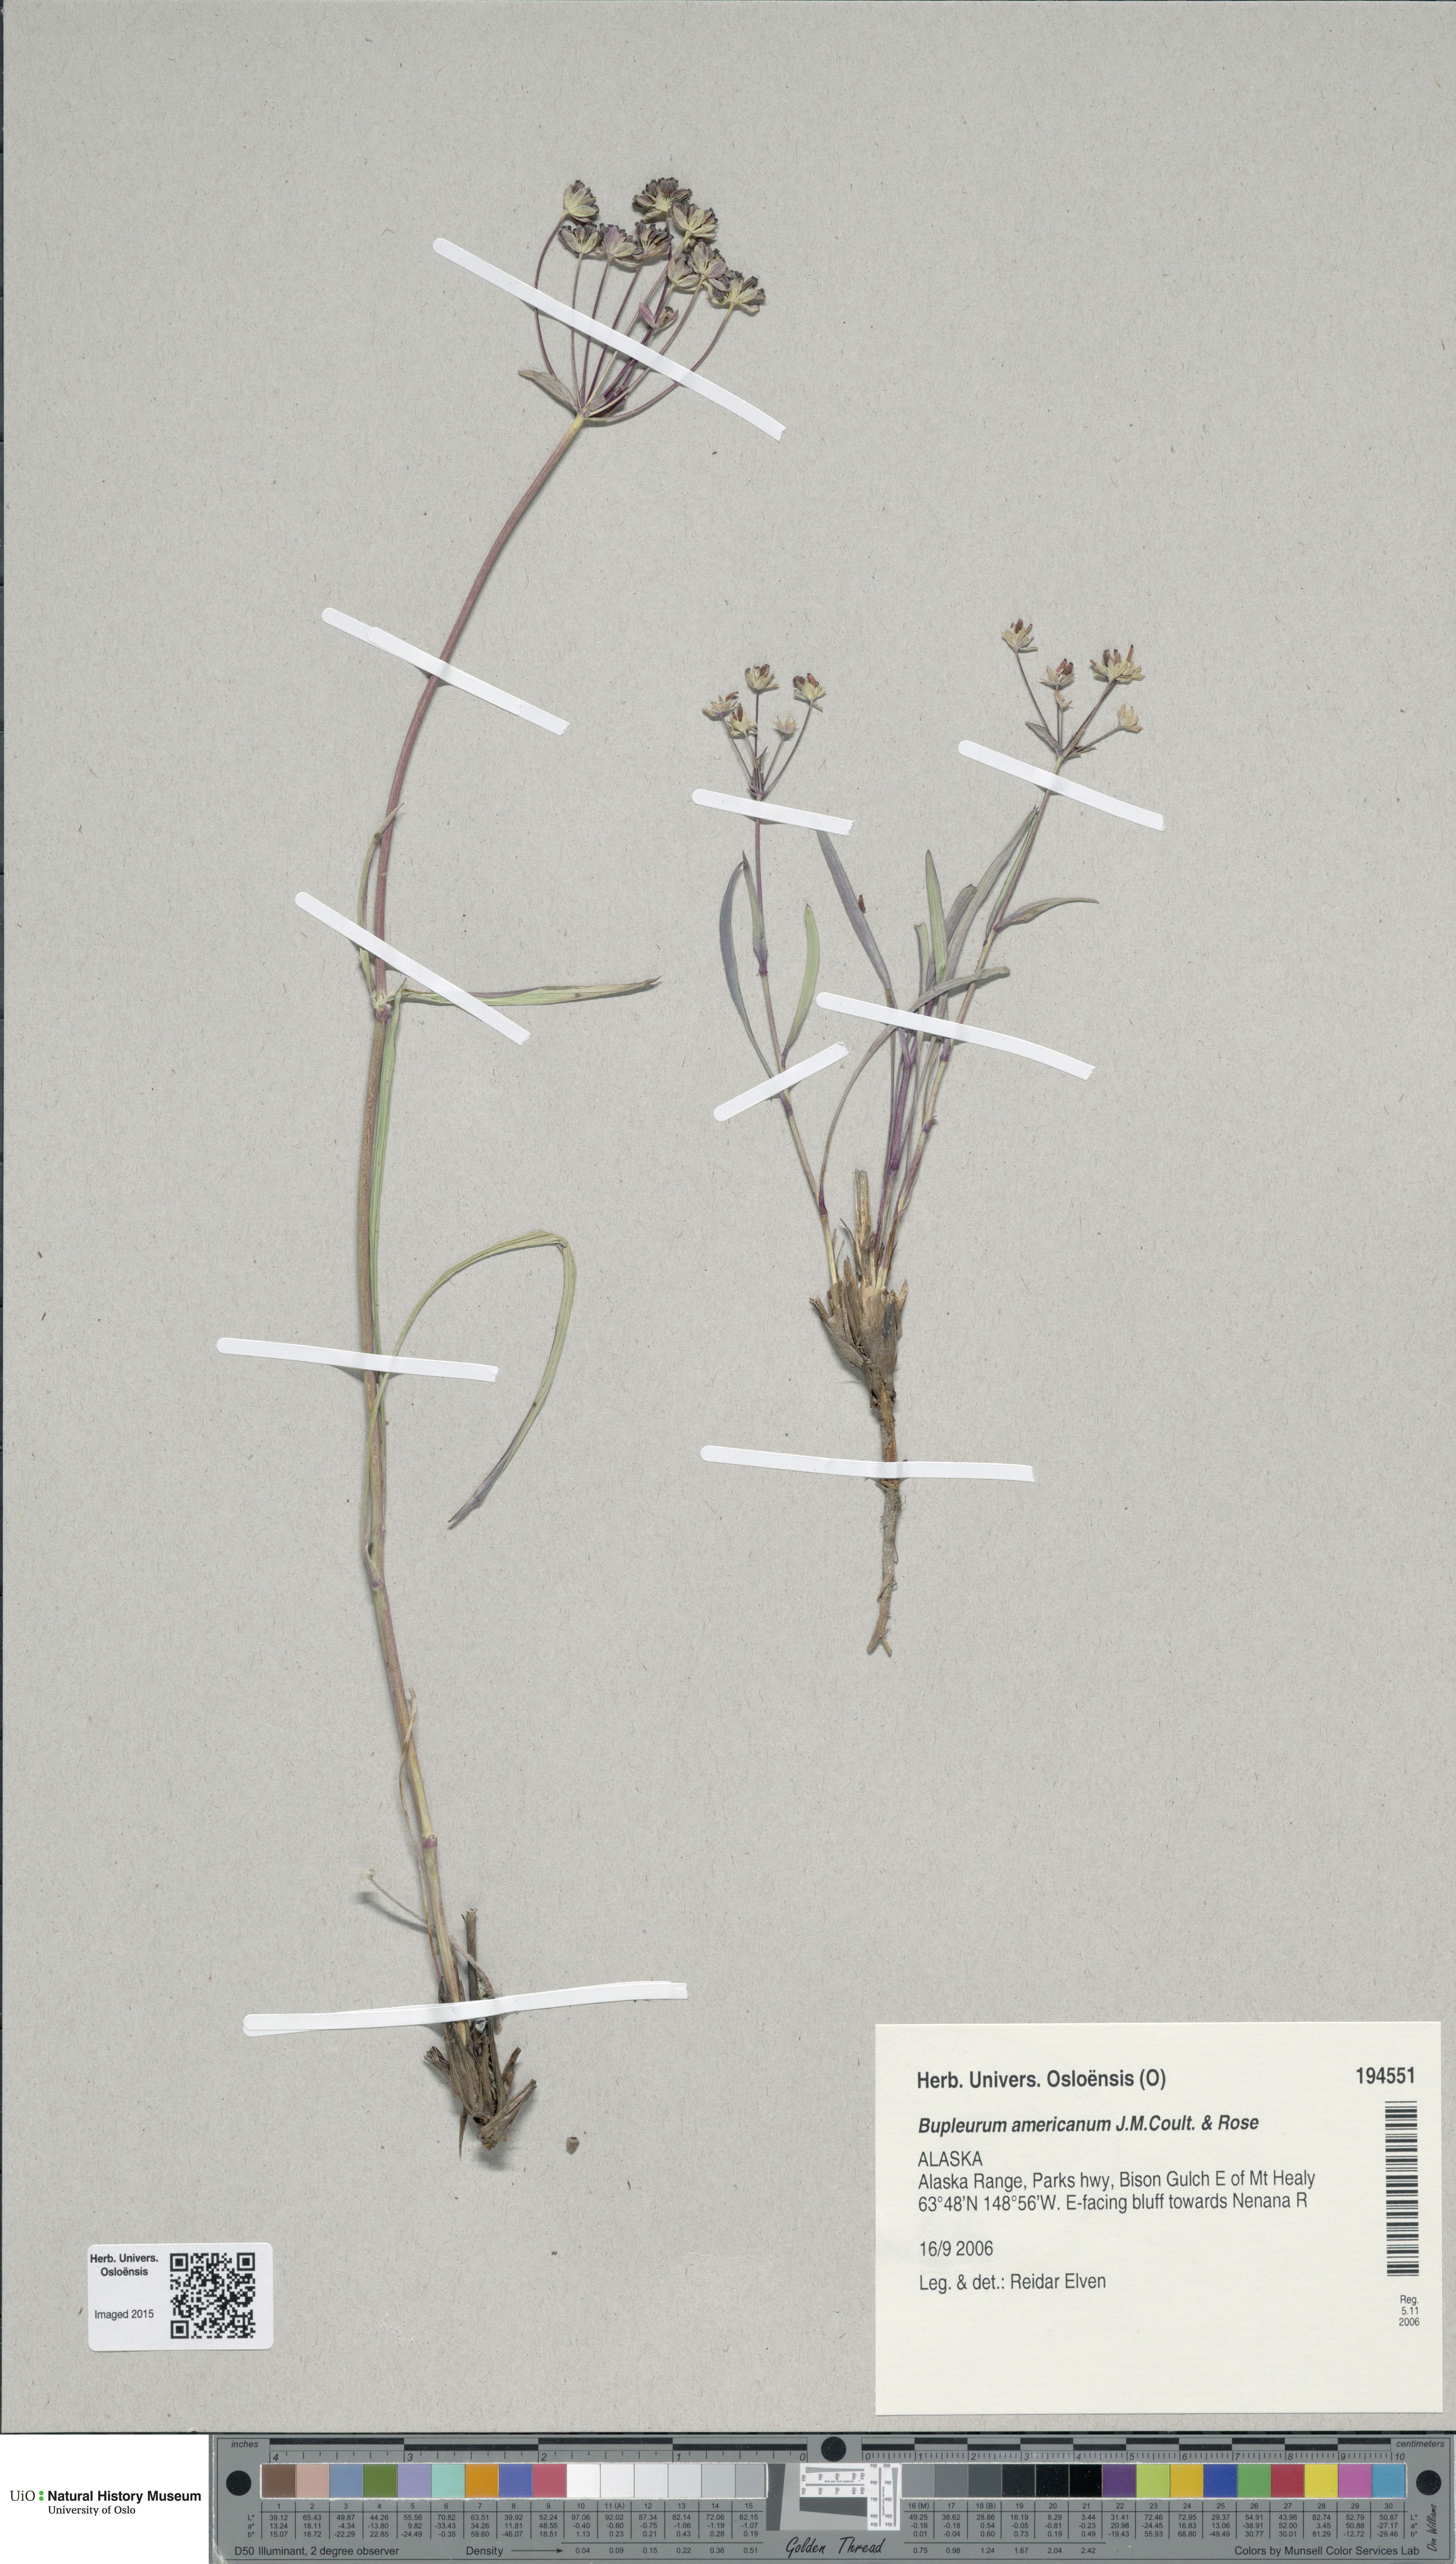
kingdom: Plantae
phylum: Tracheophyta
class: Magnoliopsida
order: Apiales
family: Apiaceae
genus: Bupleurum
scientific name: Bupleurum americanum
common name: American thoroughwax
